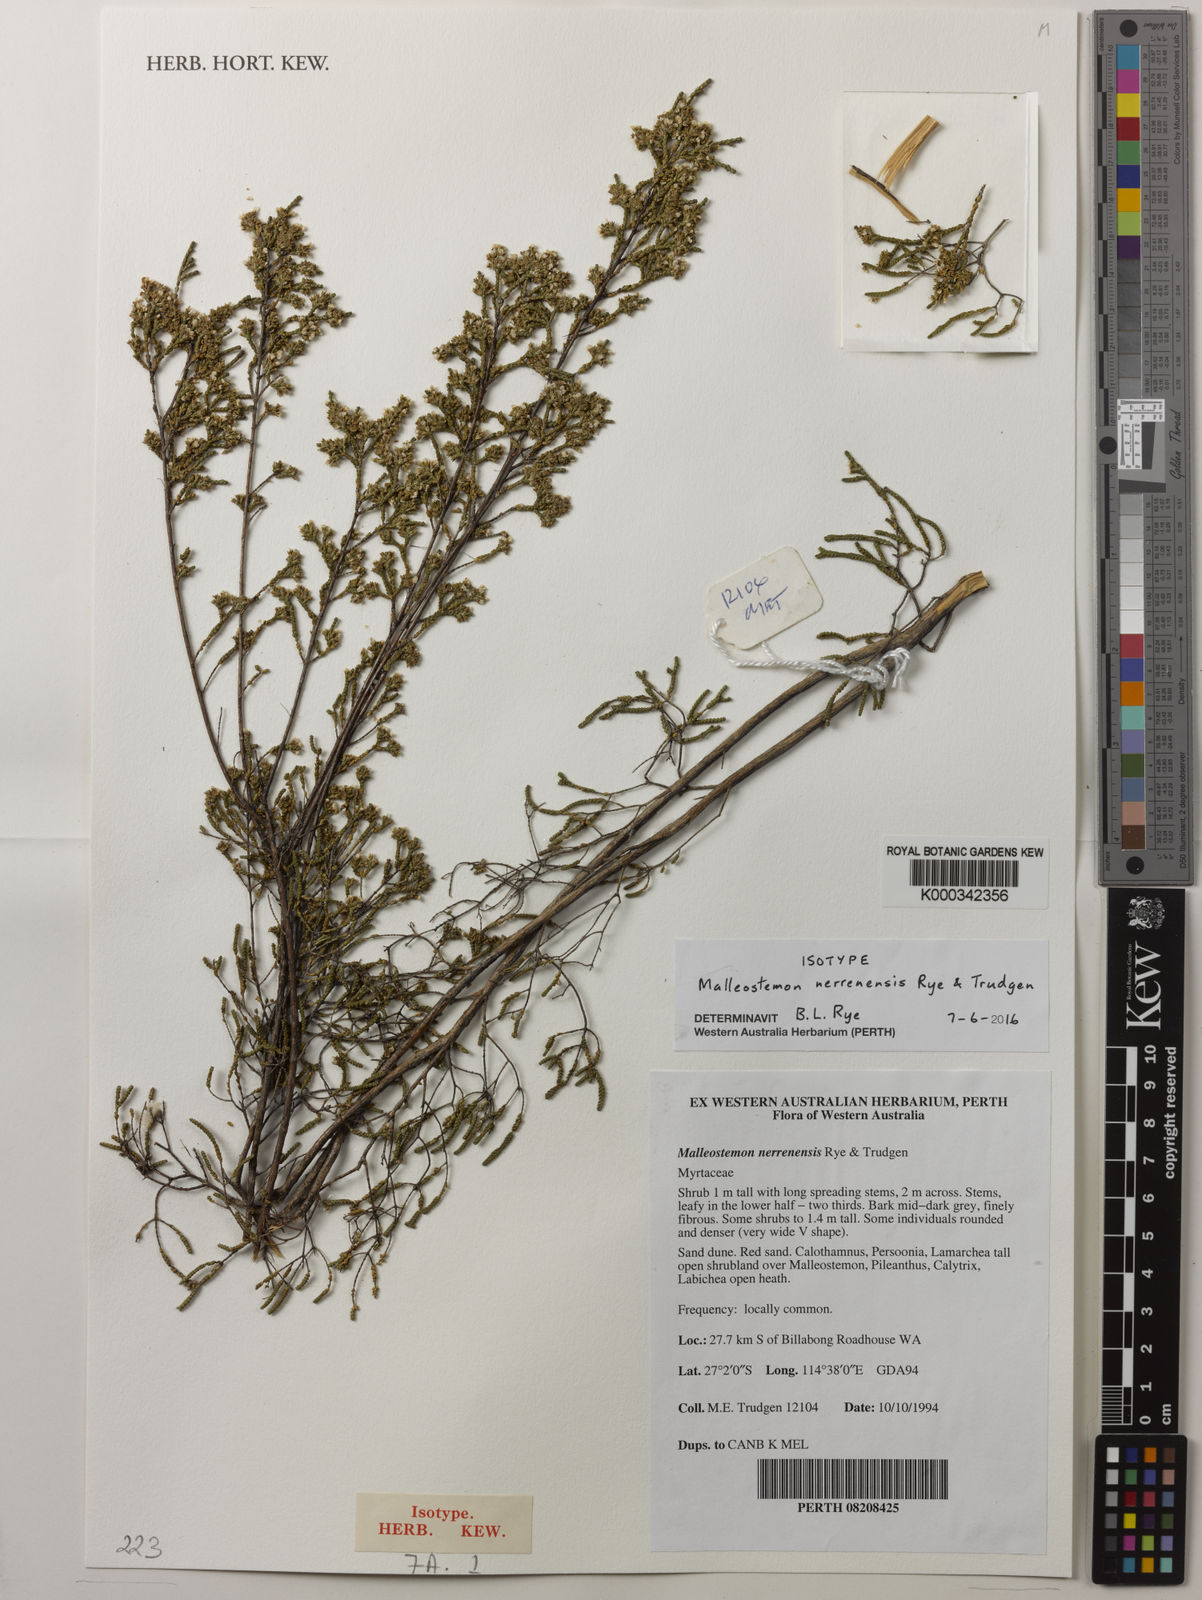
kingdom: Plantae
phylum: Tracheophyta
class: Magnoliopsida
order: Myrtales
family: Myrtaceae
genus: Malleostemon
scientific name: Malleostemon nerrenensis
